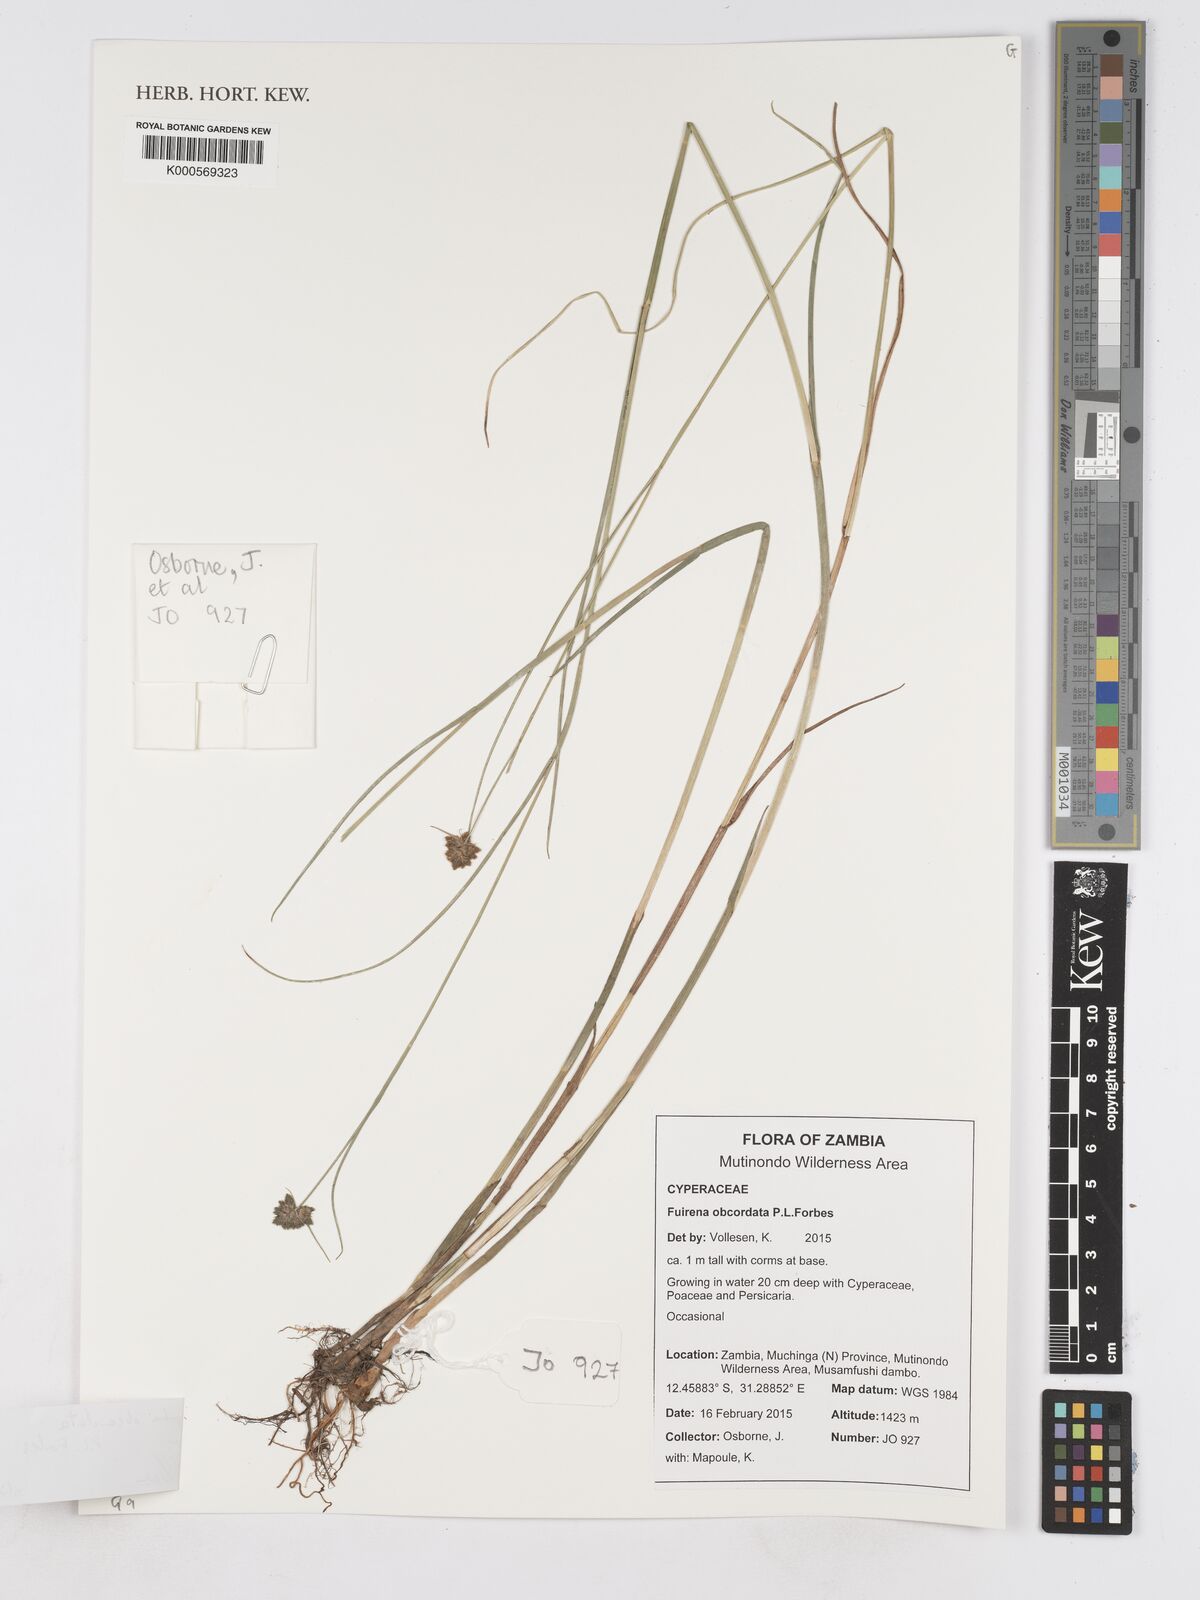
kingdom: Plantae
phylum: Tracheophyta
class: Liliopsida
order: Poales
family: Cyperaceae
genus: Fuirena
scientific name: Fuirena obcordata
